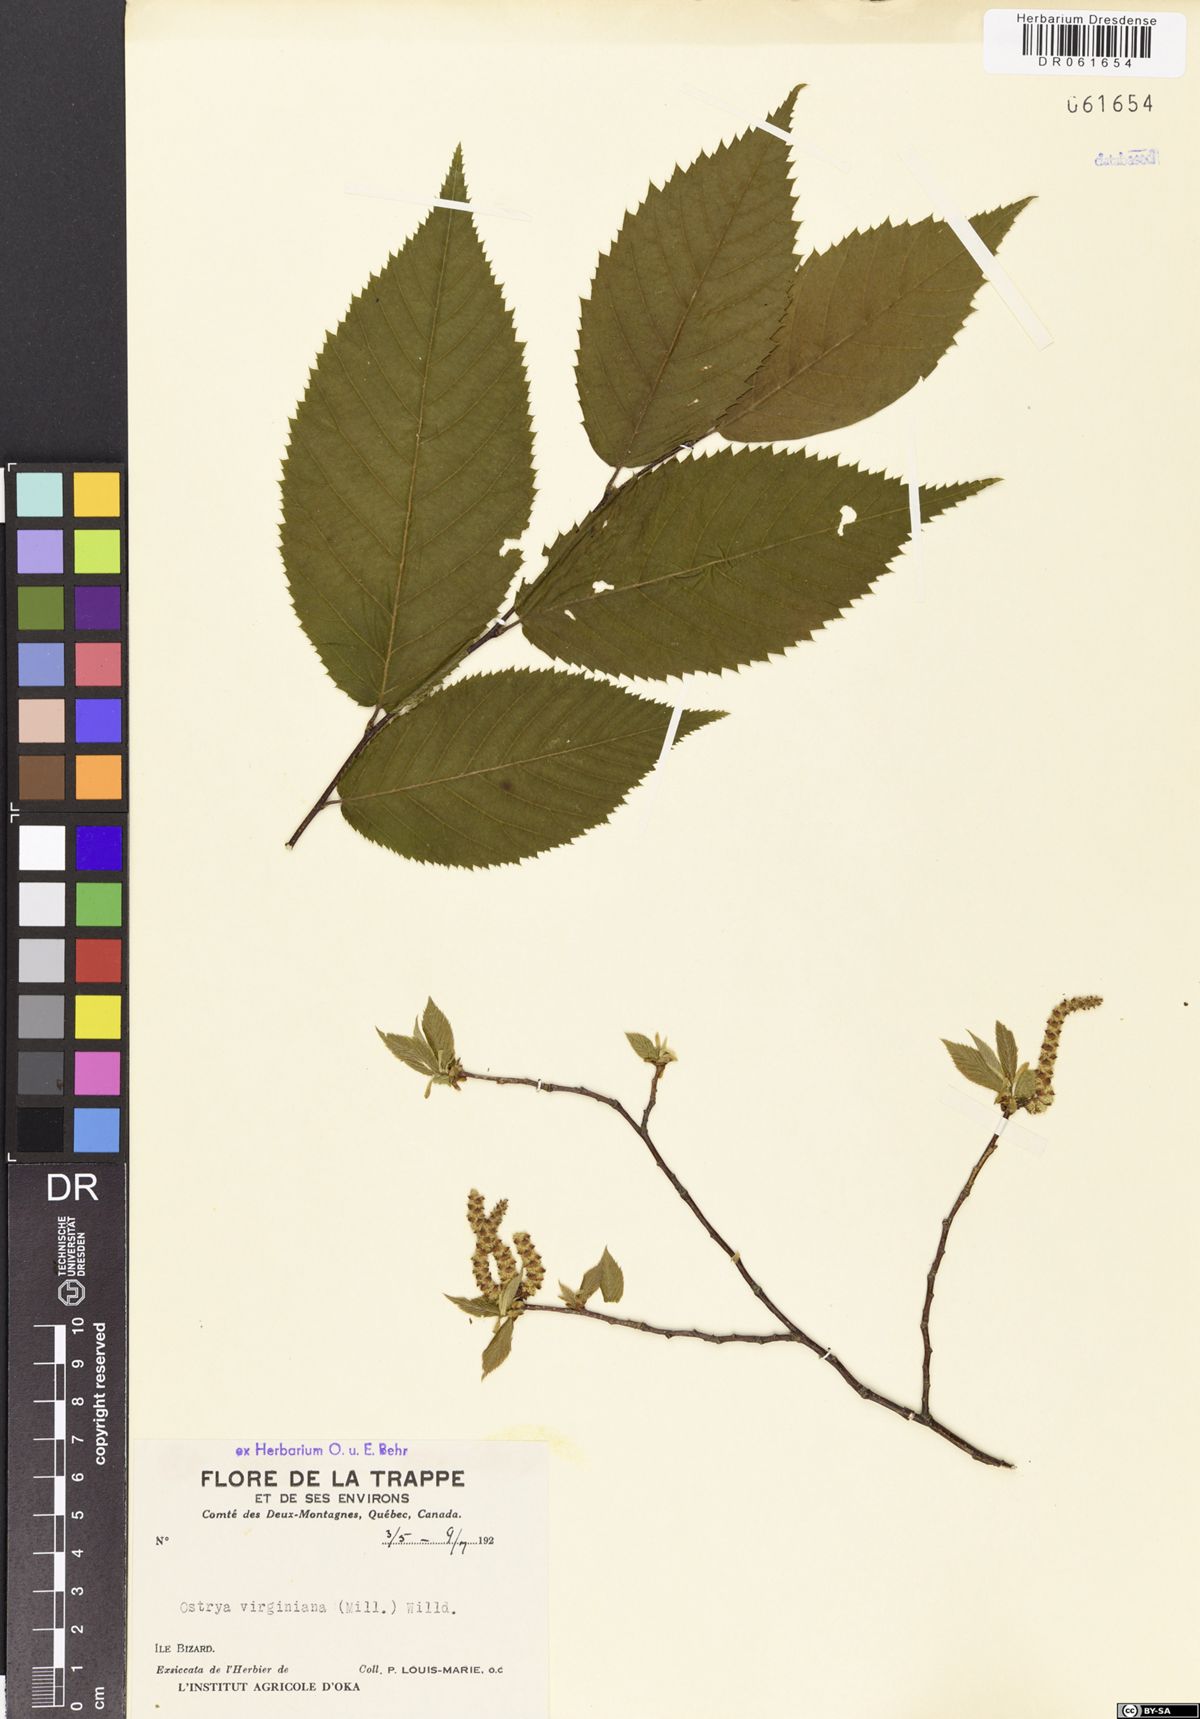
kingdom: Plantae
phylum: Tracheophyta
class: Magnoliopsida
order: Fagales
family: Betulaceae
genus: Ostrya
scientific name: Ostrya virginiana
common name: Ironwood
